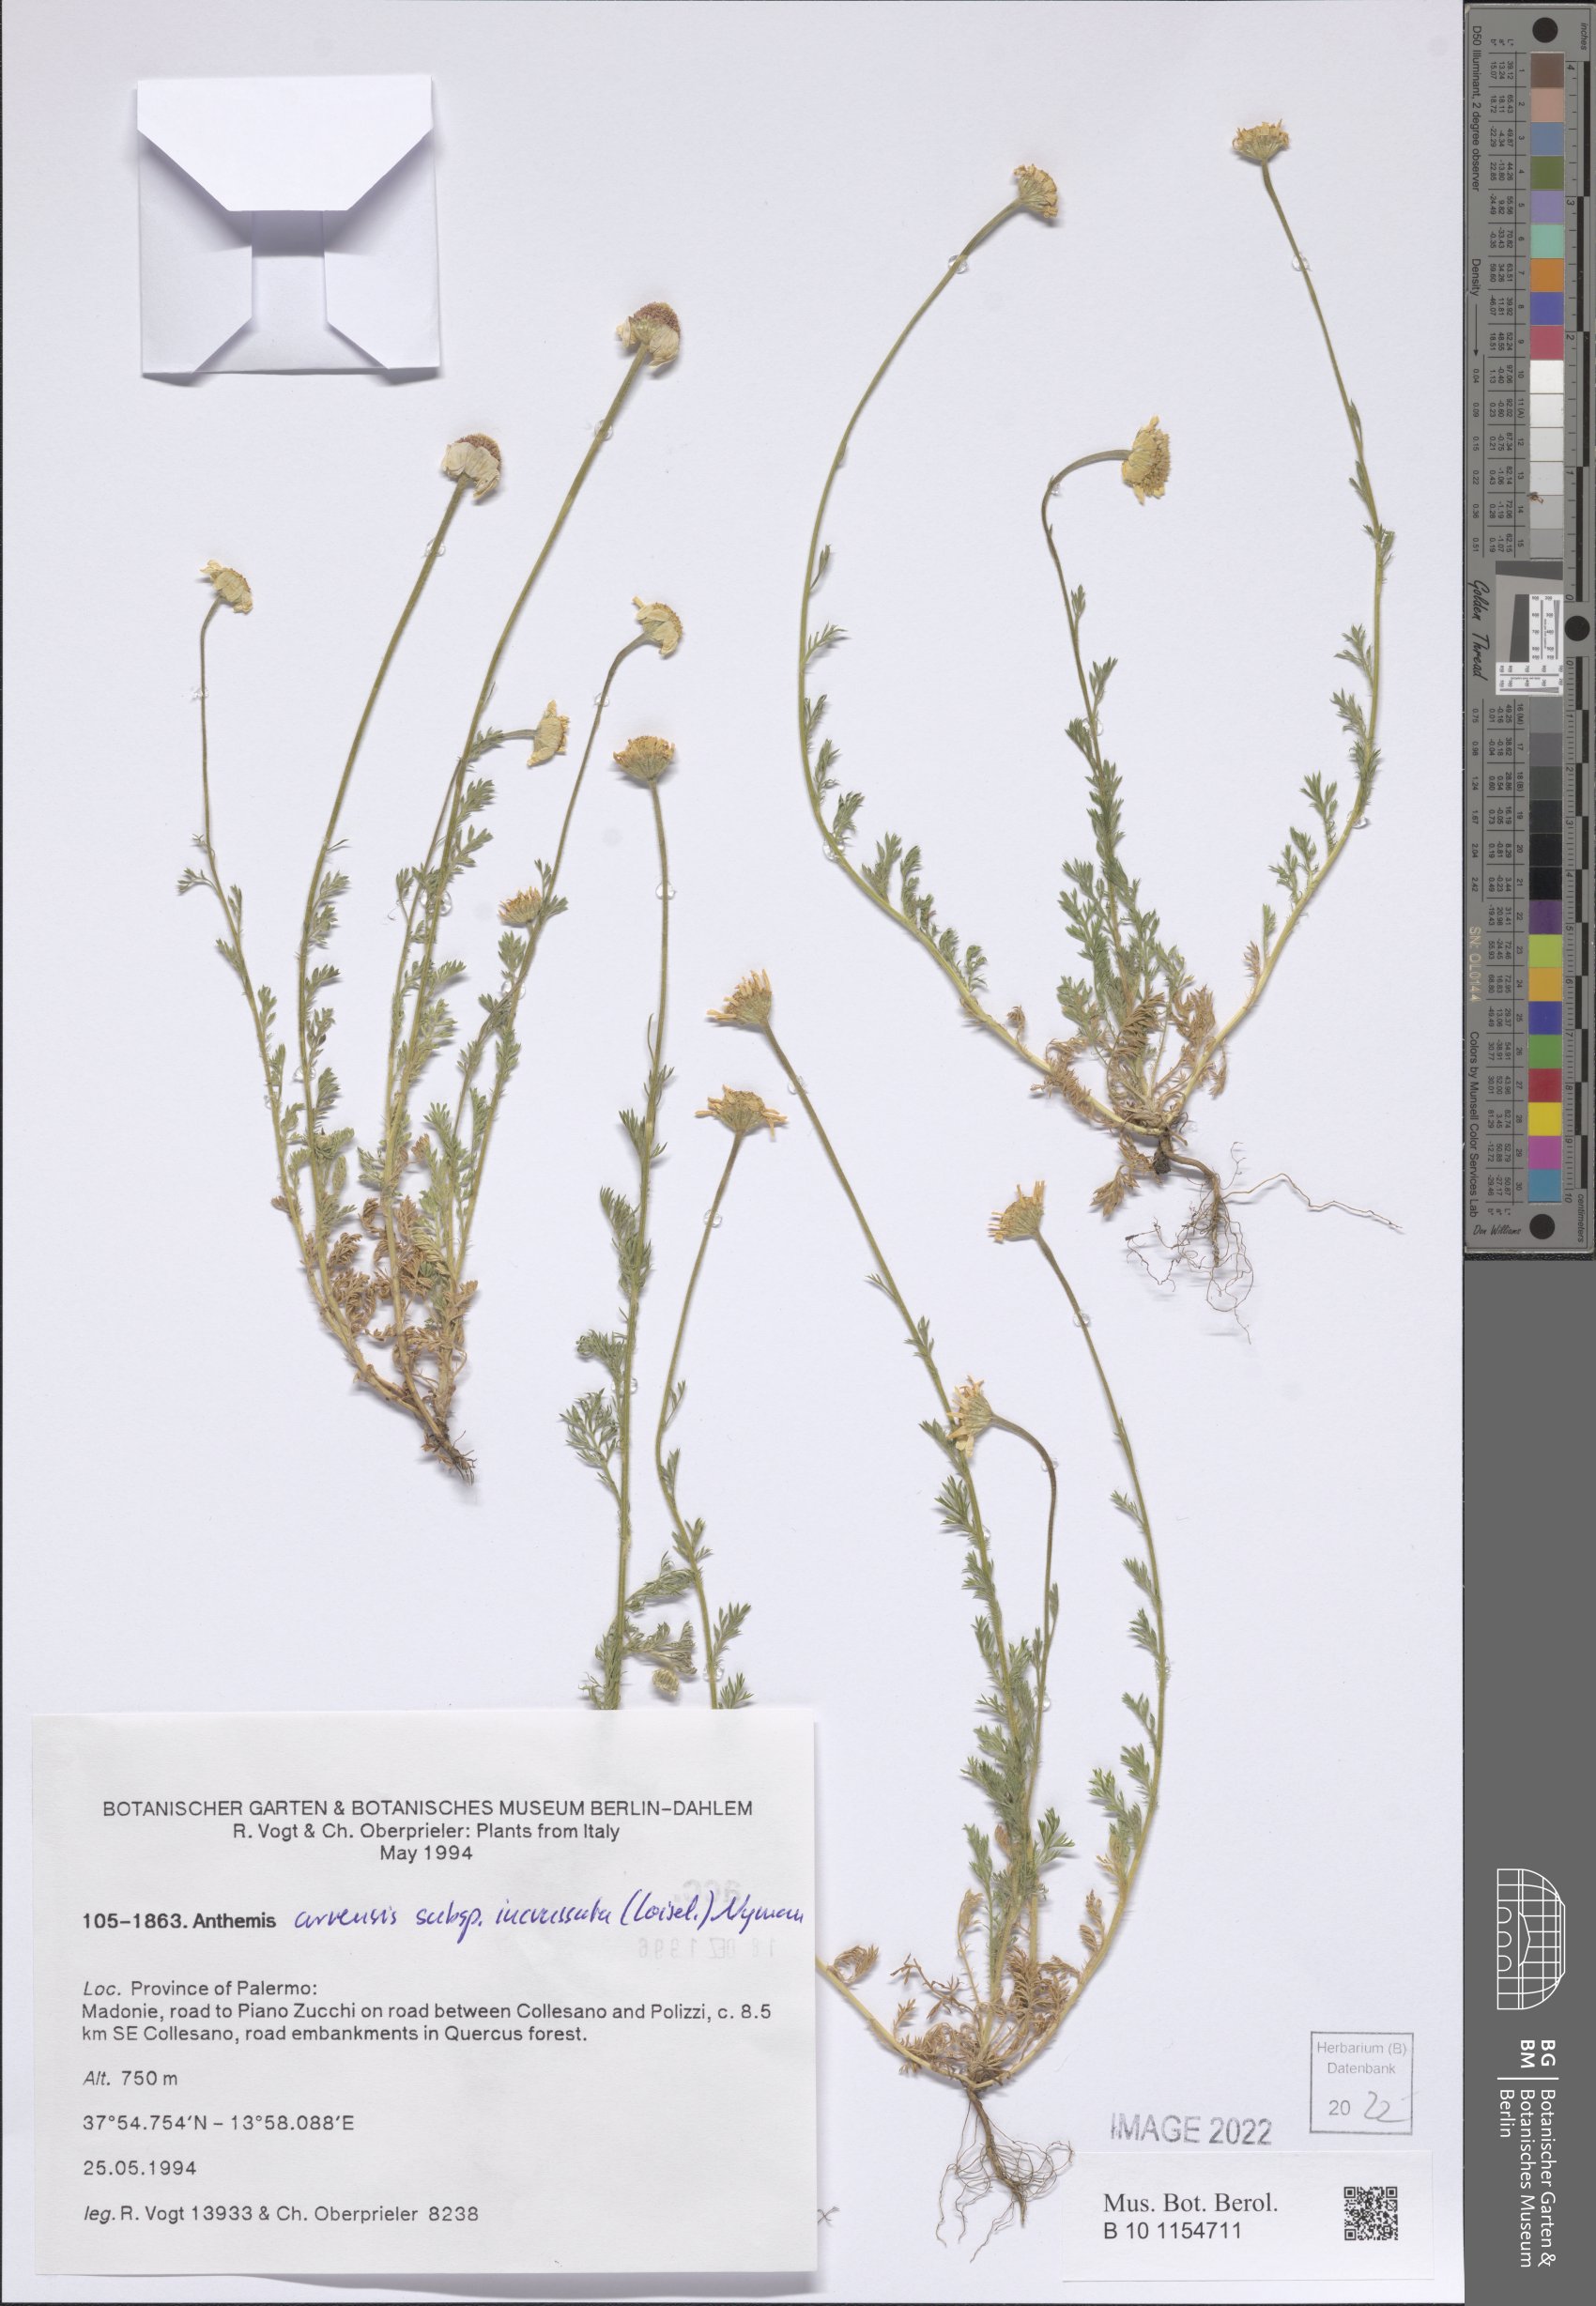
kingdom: Plantae
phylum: Tracheophyta
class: Magnoliopsida
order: Asterales
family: Asteraceae
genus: Anthemis
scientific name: Anthemis arvensis
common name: Corn chamomile
